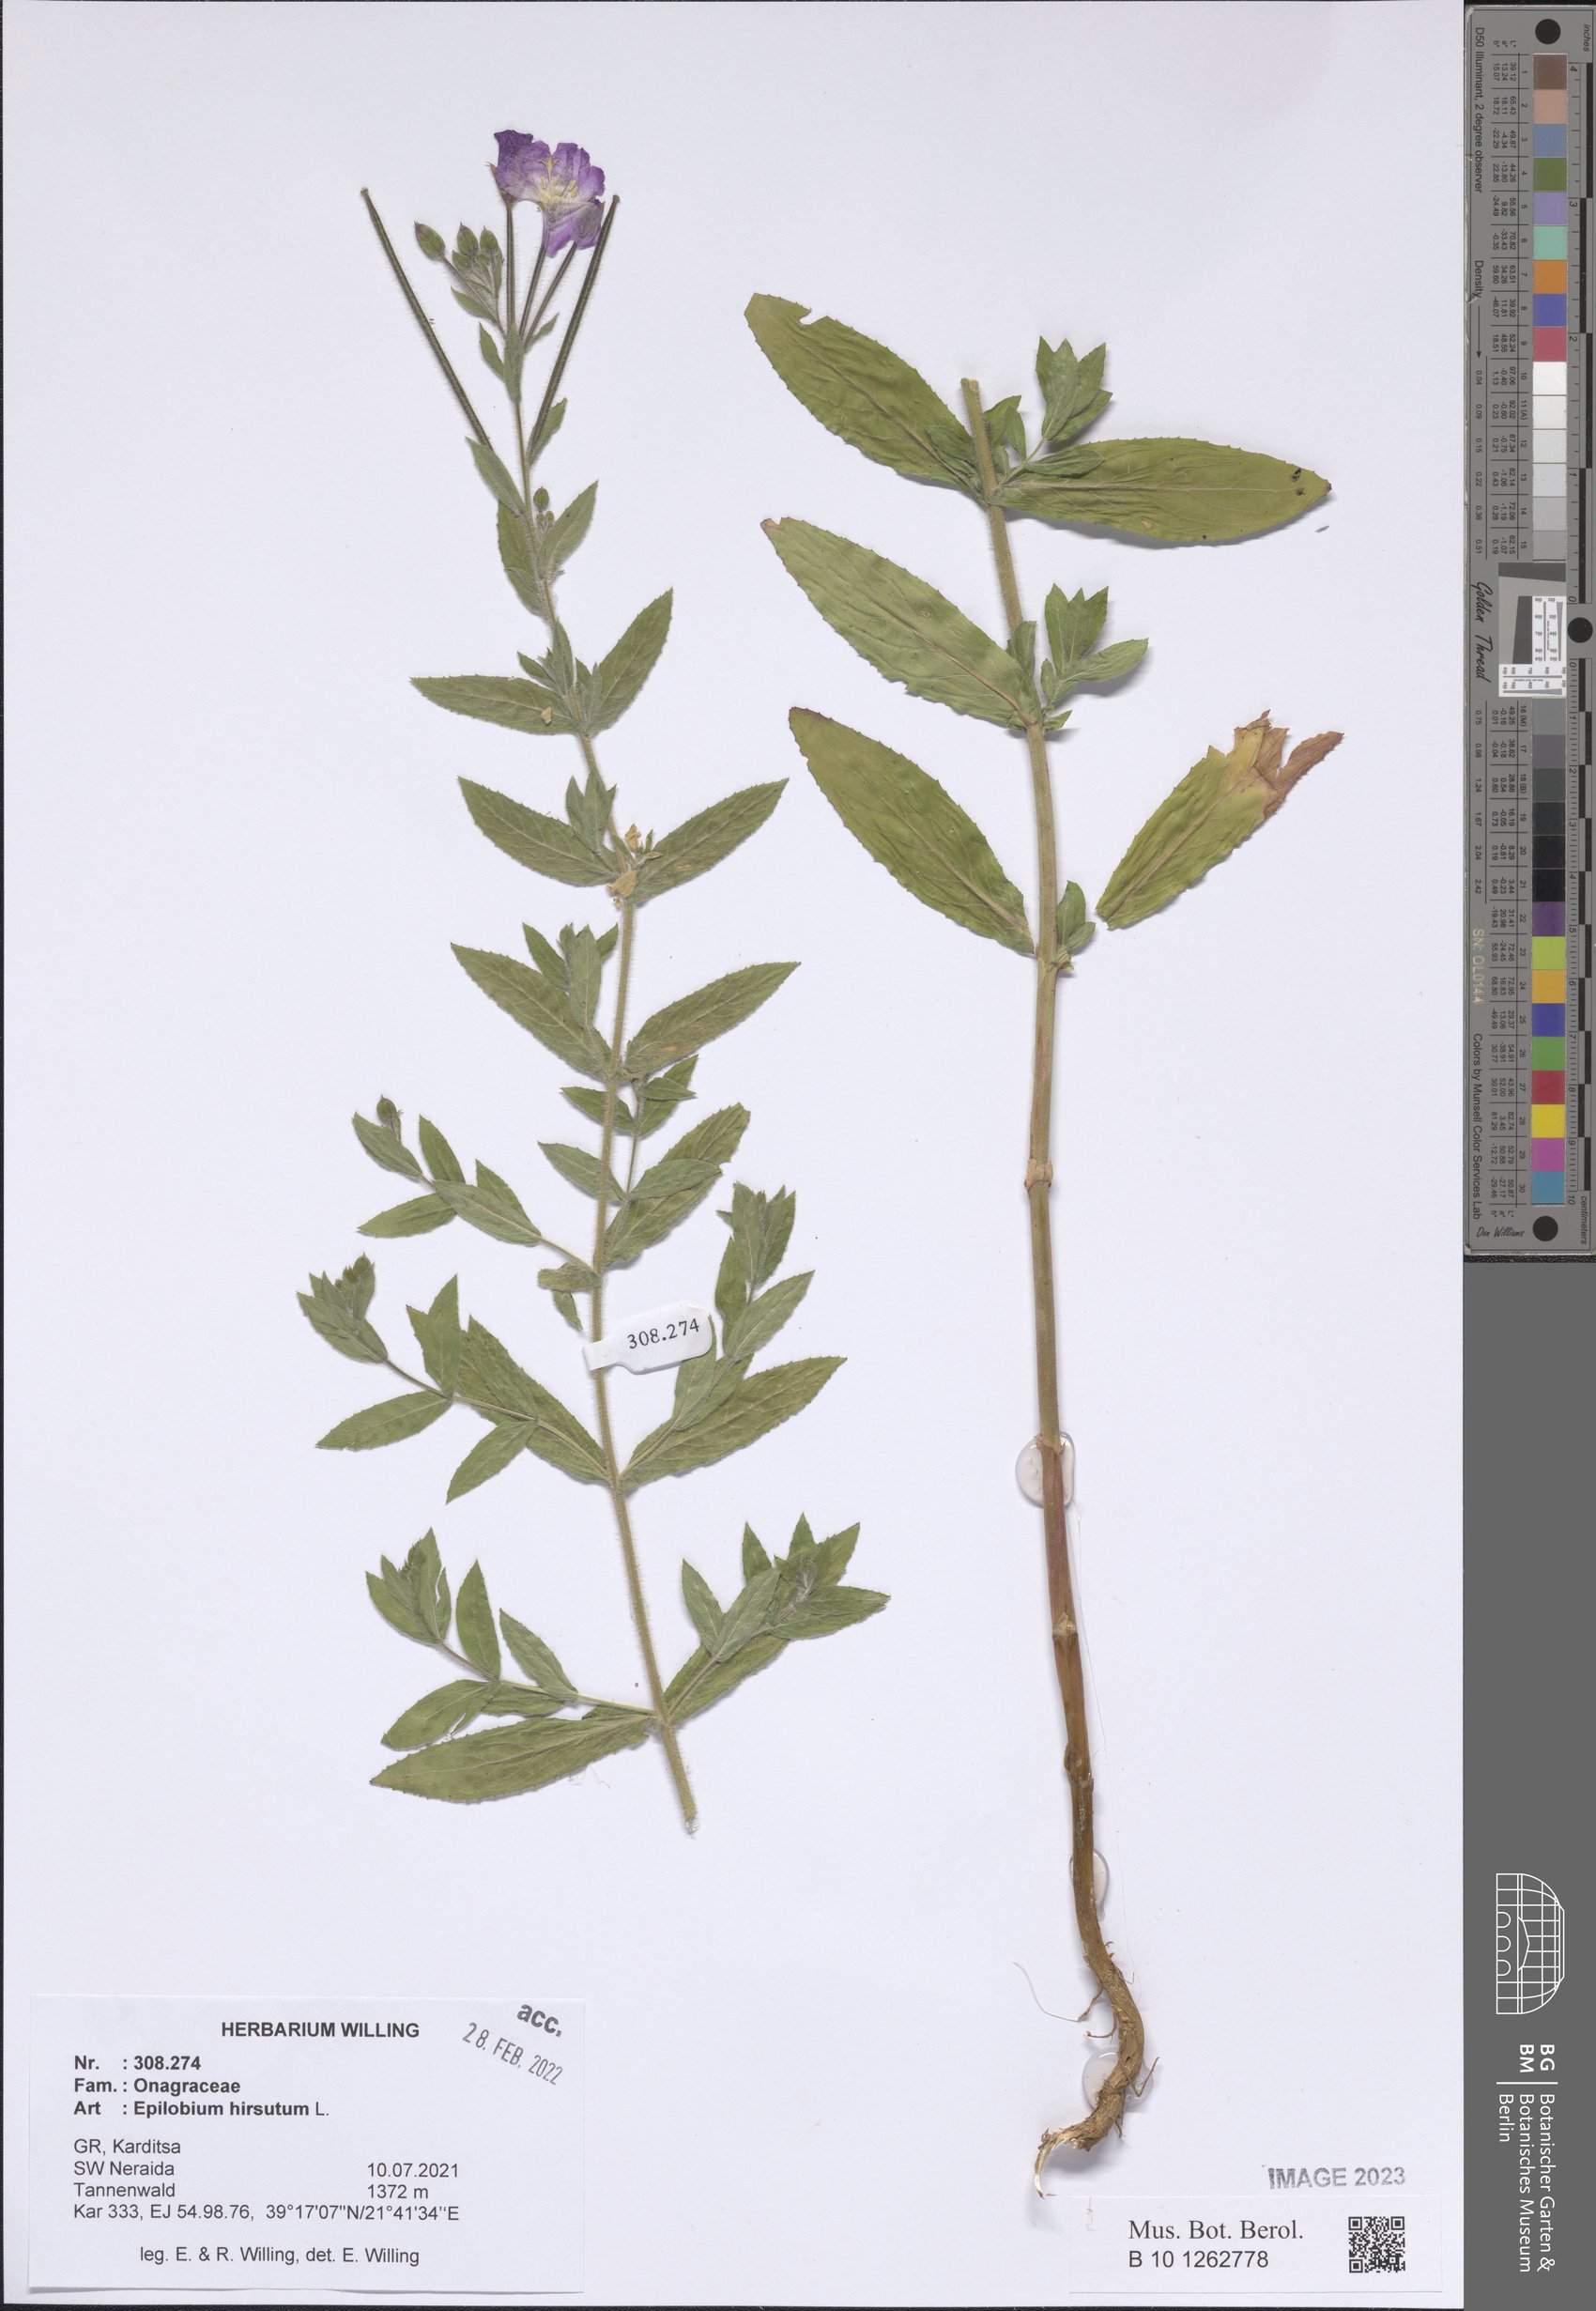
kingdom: Plantae
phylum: Tracheophyta
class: Magnoliopsida
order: Myrtales
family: Onagraceae
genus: Epilobium
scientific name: Epilobium hirsutum
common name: Great willowherb
